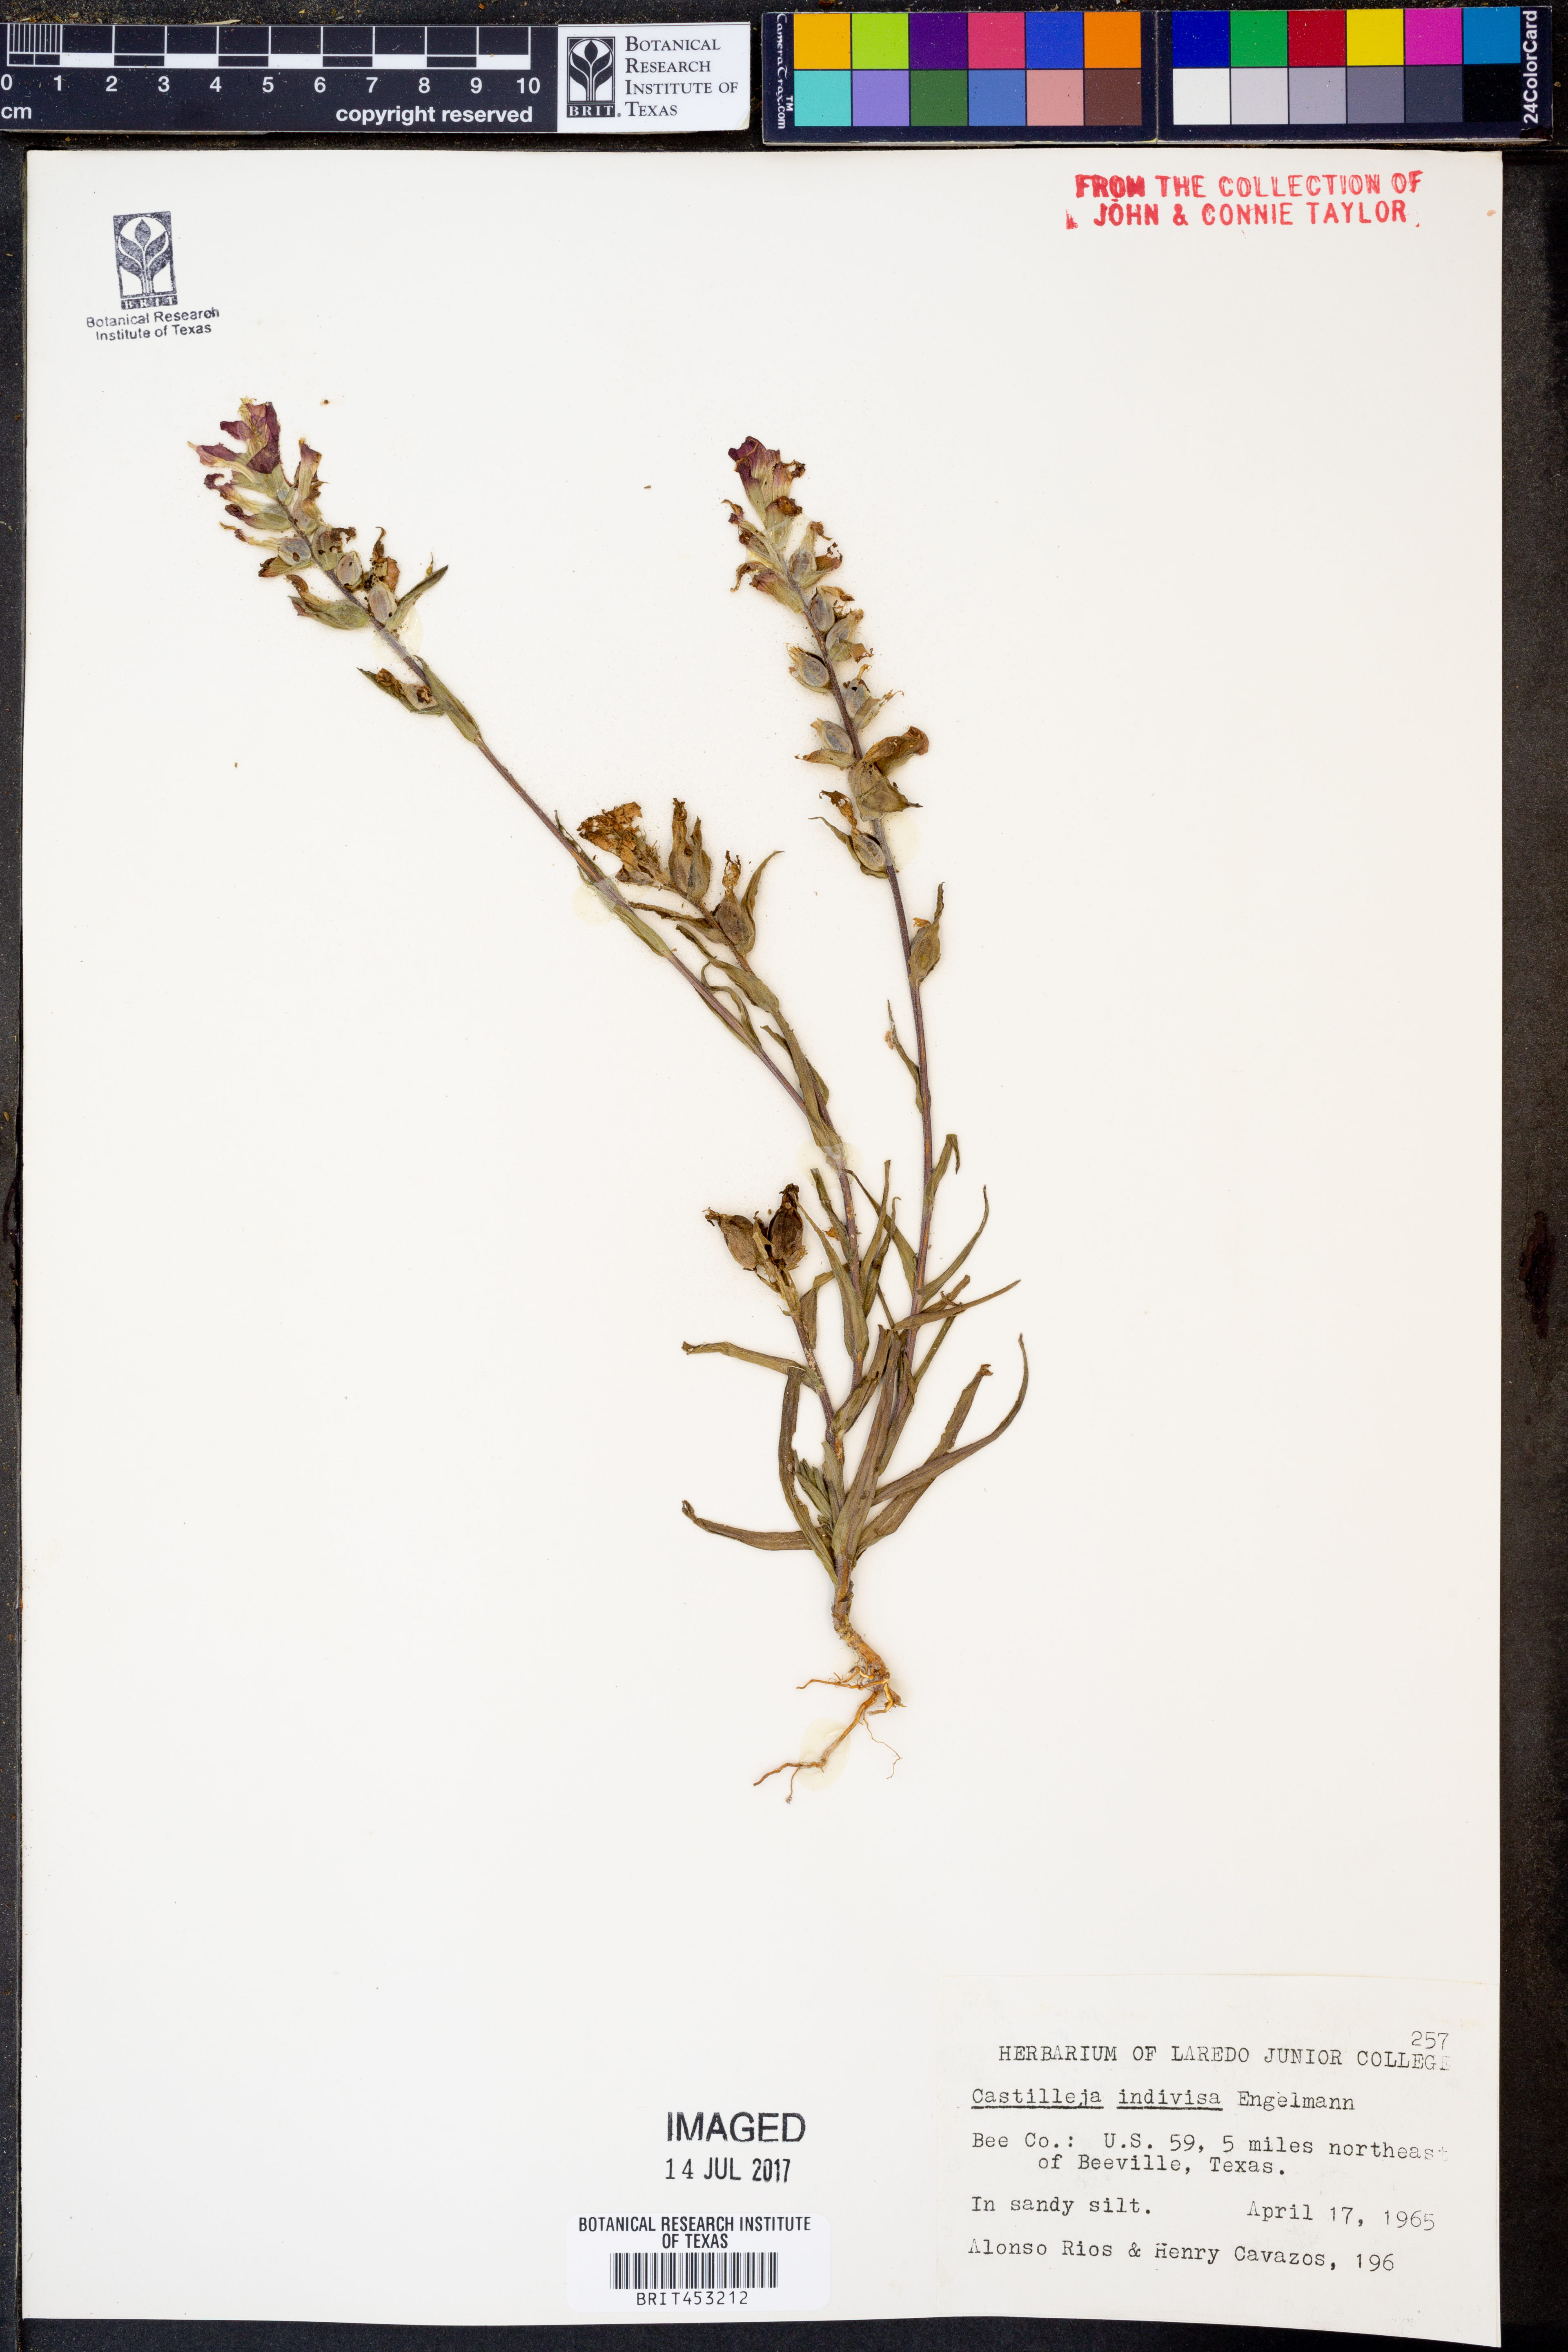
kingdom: Plantae
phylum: Tracheophyta
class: Magnoliopsida
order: Lamiales
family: Orobanchaceae
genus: Castilleja
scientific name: Castilleja indivisa
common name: Texas paintbrush
